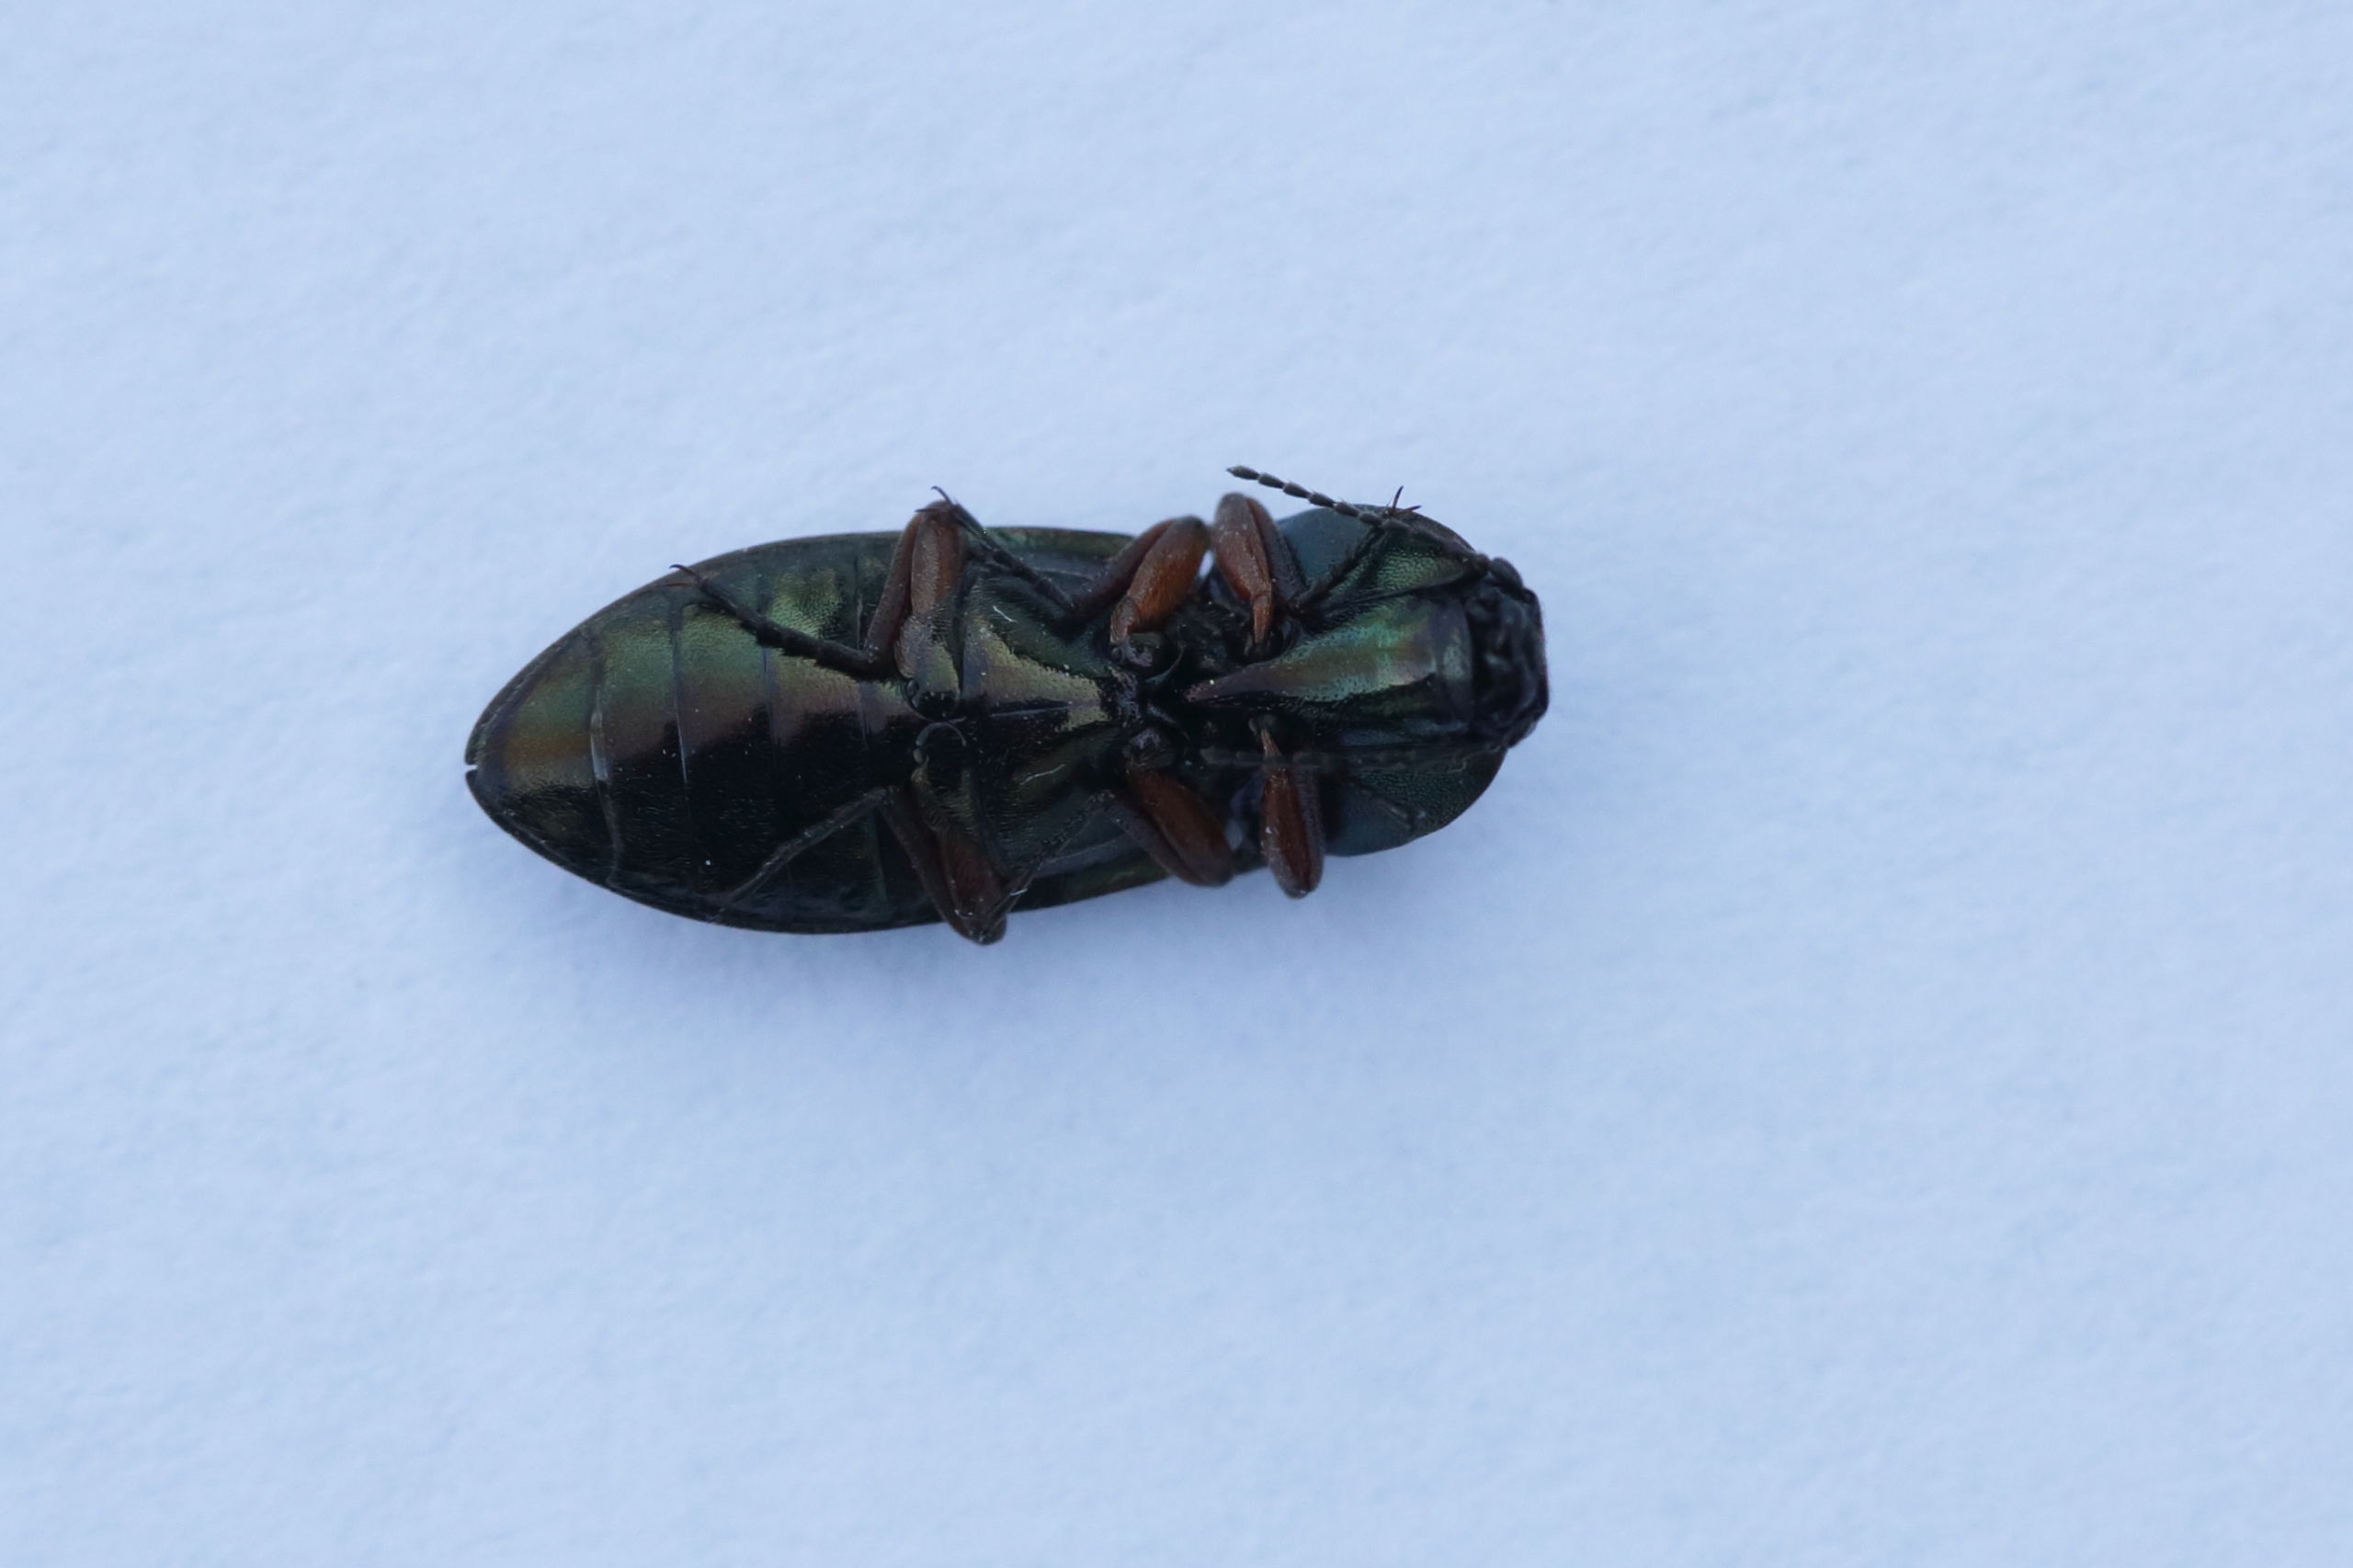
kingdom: Animalia
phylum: Arthropoda
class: Insecta
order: Coleoptera
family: Elateridae
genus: Selatosomus
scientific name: Selatosomus aeneus
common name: Kobbersmælder
